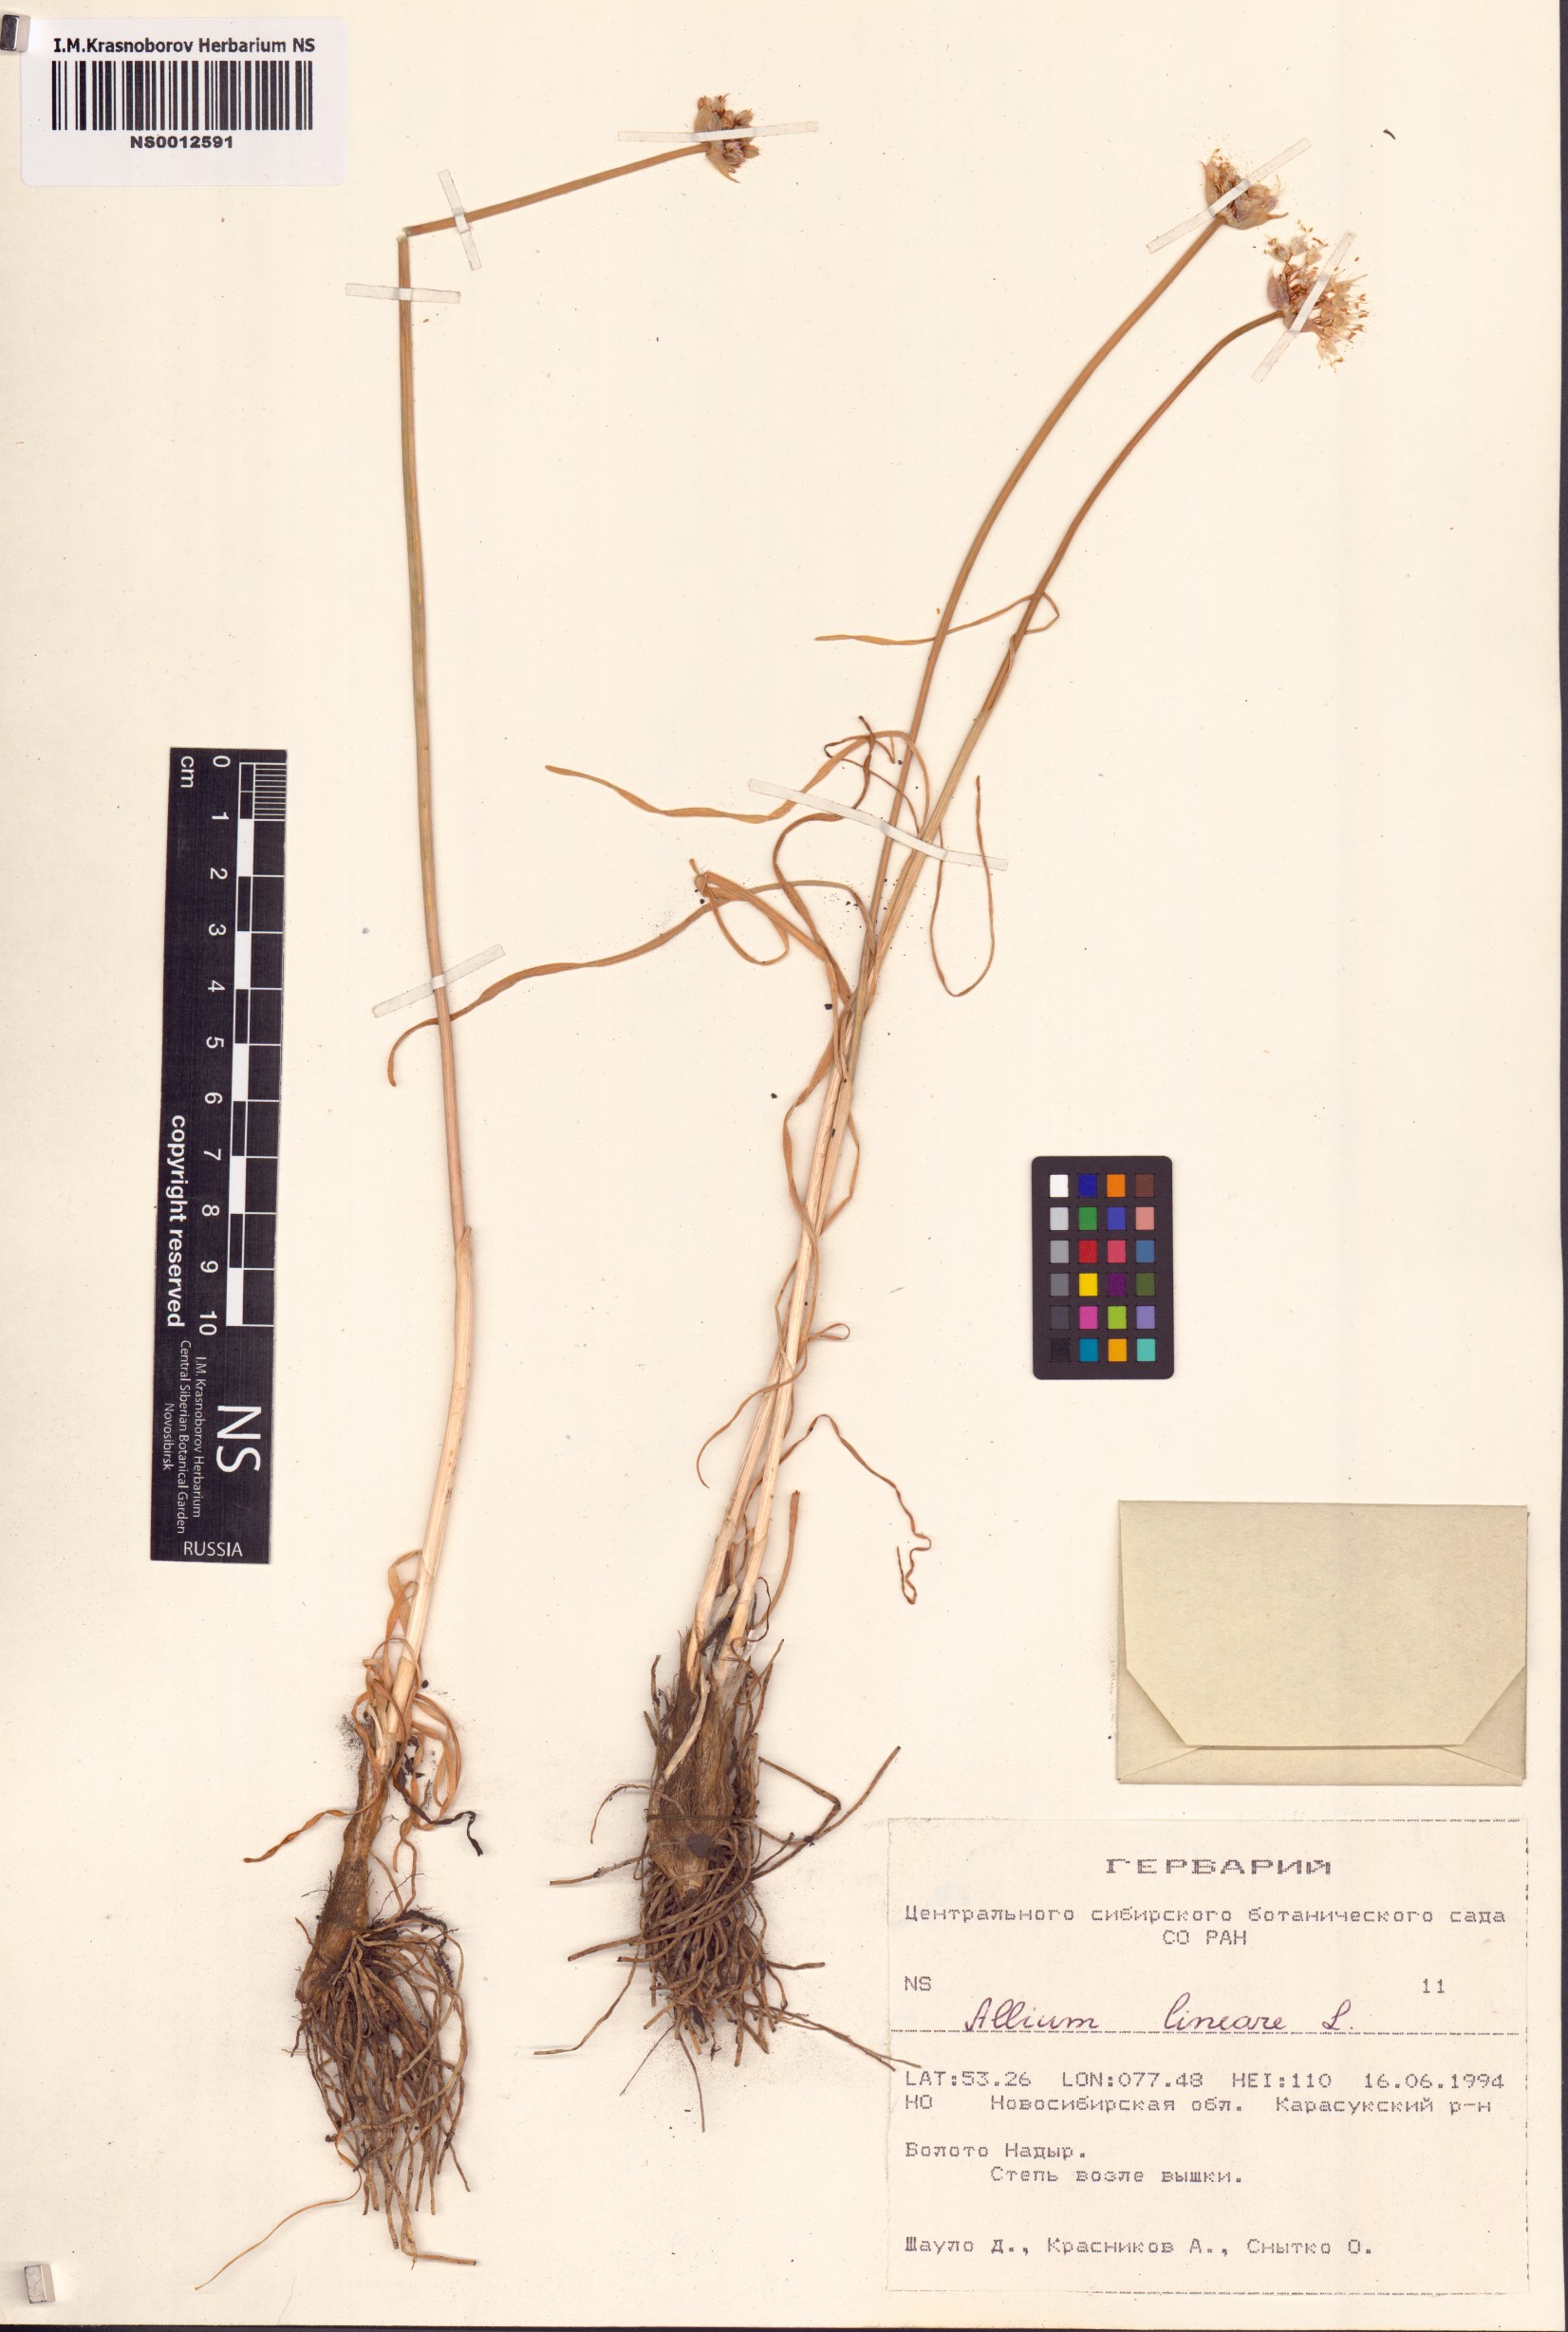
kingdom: Plantae
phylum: Tracheophyta
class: Liliopsida
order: Asparagales
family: Amaryllidaceae
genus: Allium
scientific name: Allium lineare
